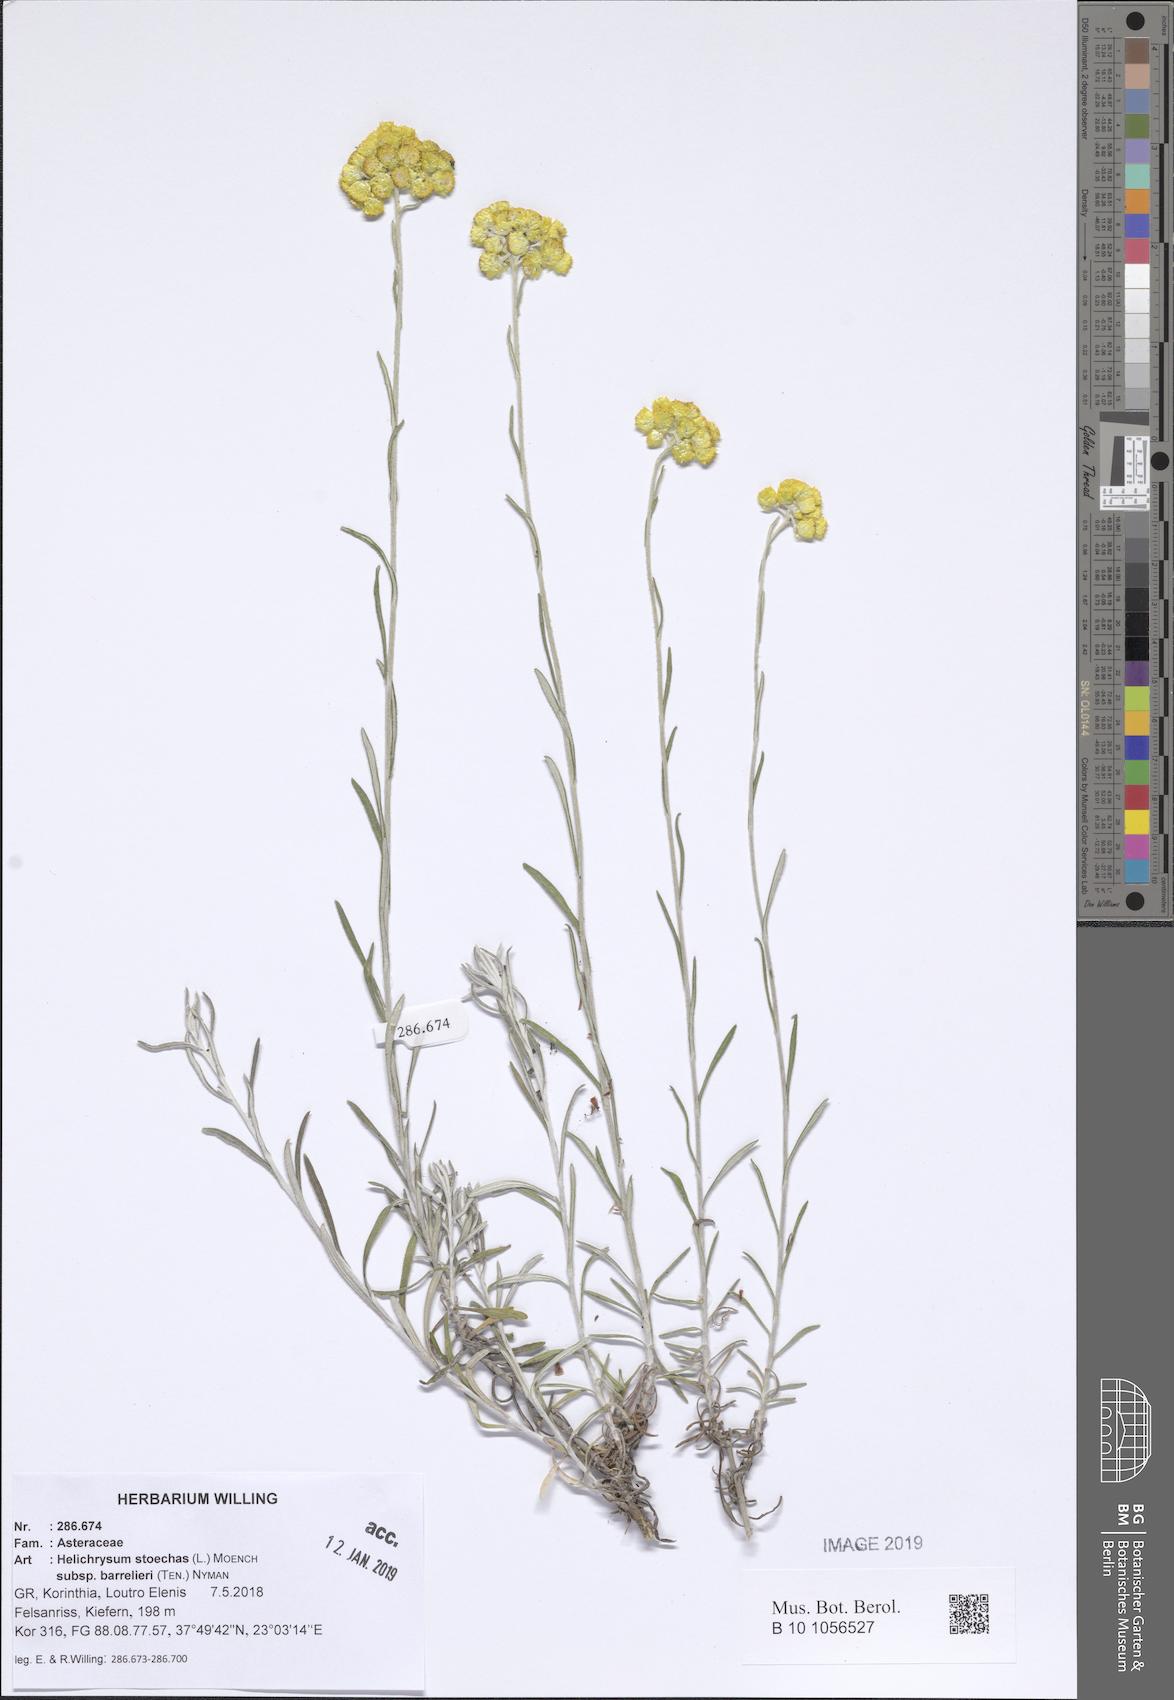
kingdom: Plantae
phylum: Tracheophyta
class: Magnoliopsida
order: Asterales
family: Asteraceae
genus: Helichrysum
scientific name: Helichrysum stoechas
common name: Goldilocks
